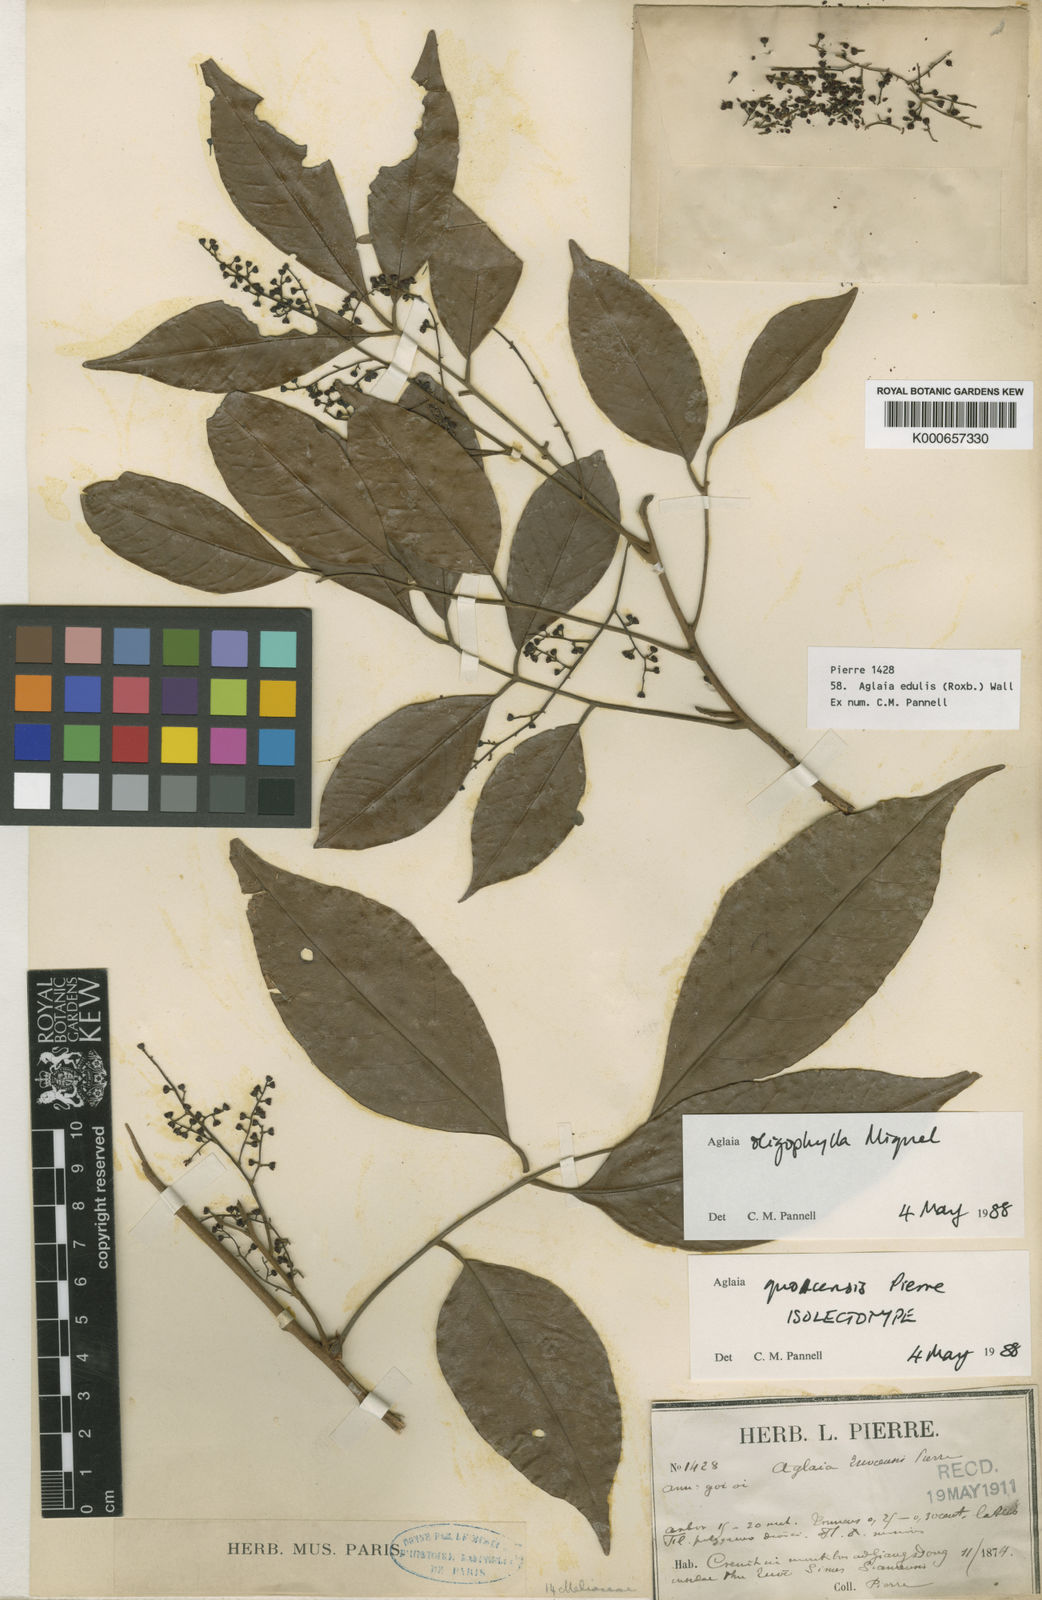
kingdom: Plantae
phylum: Tracheophyta
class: Magnoliopsida
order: Sapindales
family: Meliaceae
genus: Aglaia
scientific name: Aglaia edulis
